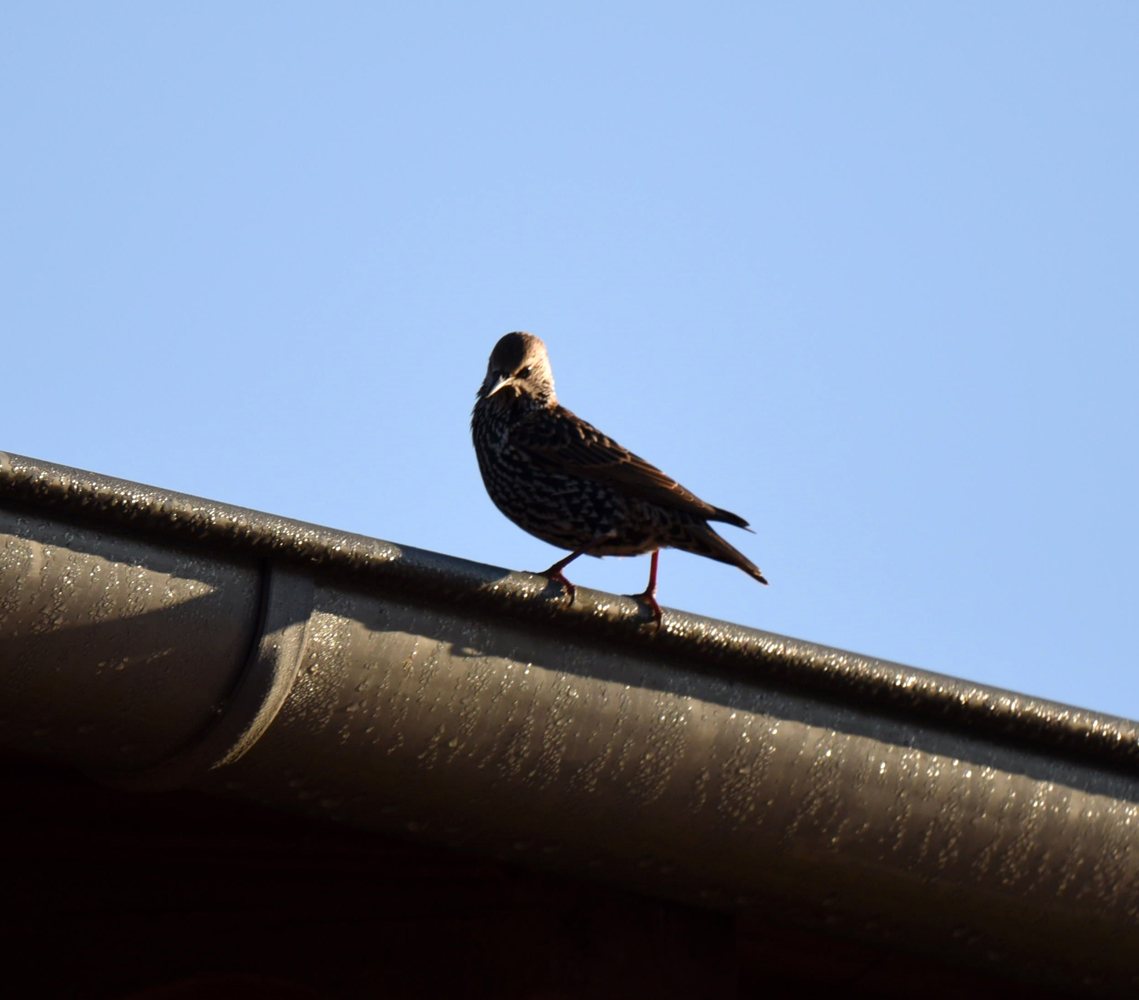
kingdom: Animalia
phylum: Chordata
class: Aves
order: Passeriformes
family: Sturnidae
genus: Sturnus
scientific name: Sturnus vulgaris
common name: Common starling
